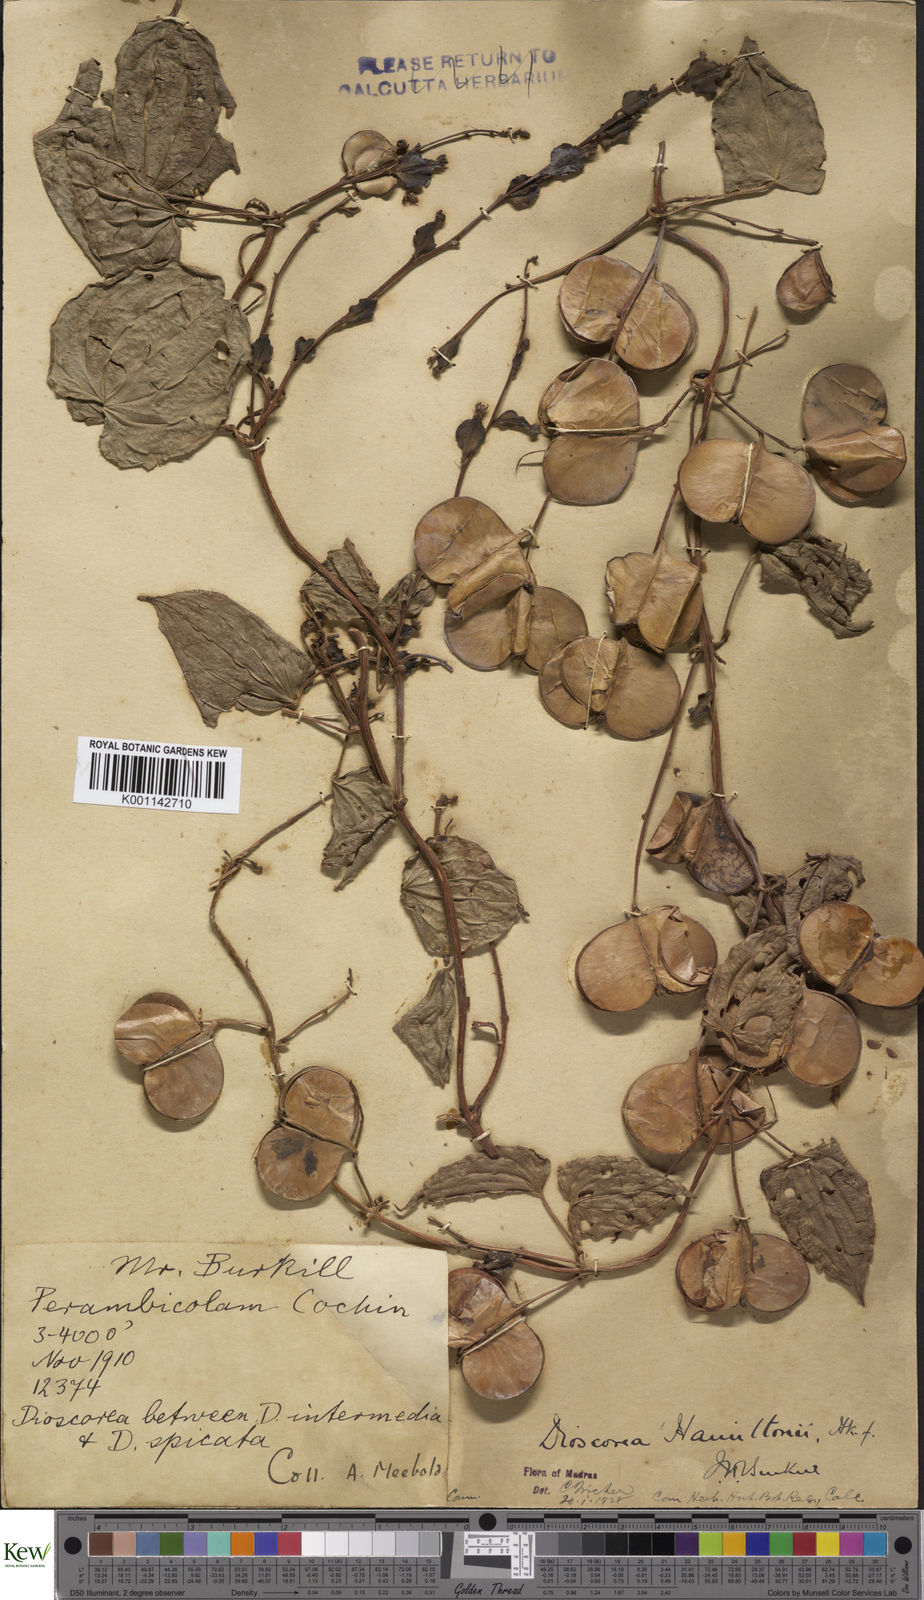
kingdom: Plantae
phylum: Tracheophyta
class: Liliopsida
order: Dioscoreales
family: Dioscoreaceae
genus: Dioscorea
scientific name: Dioscorea hamiltonii
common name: Mountain yam
